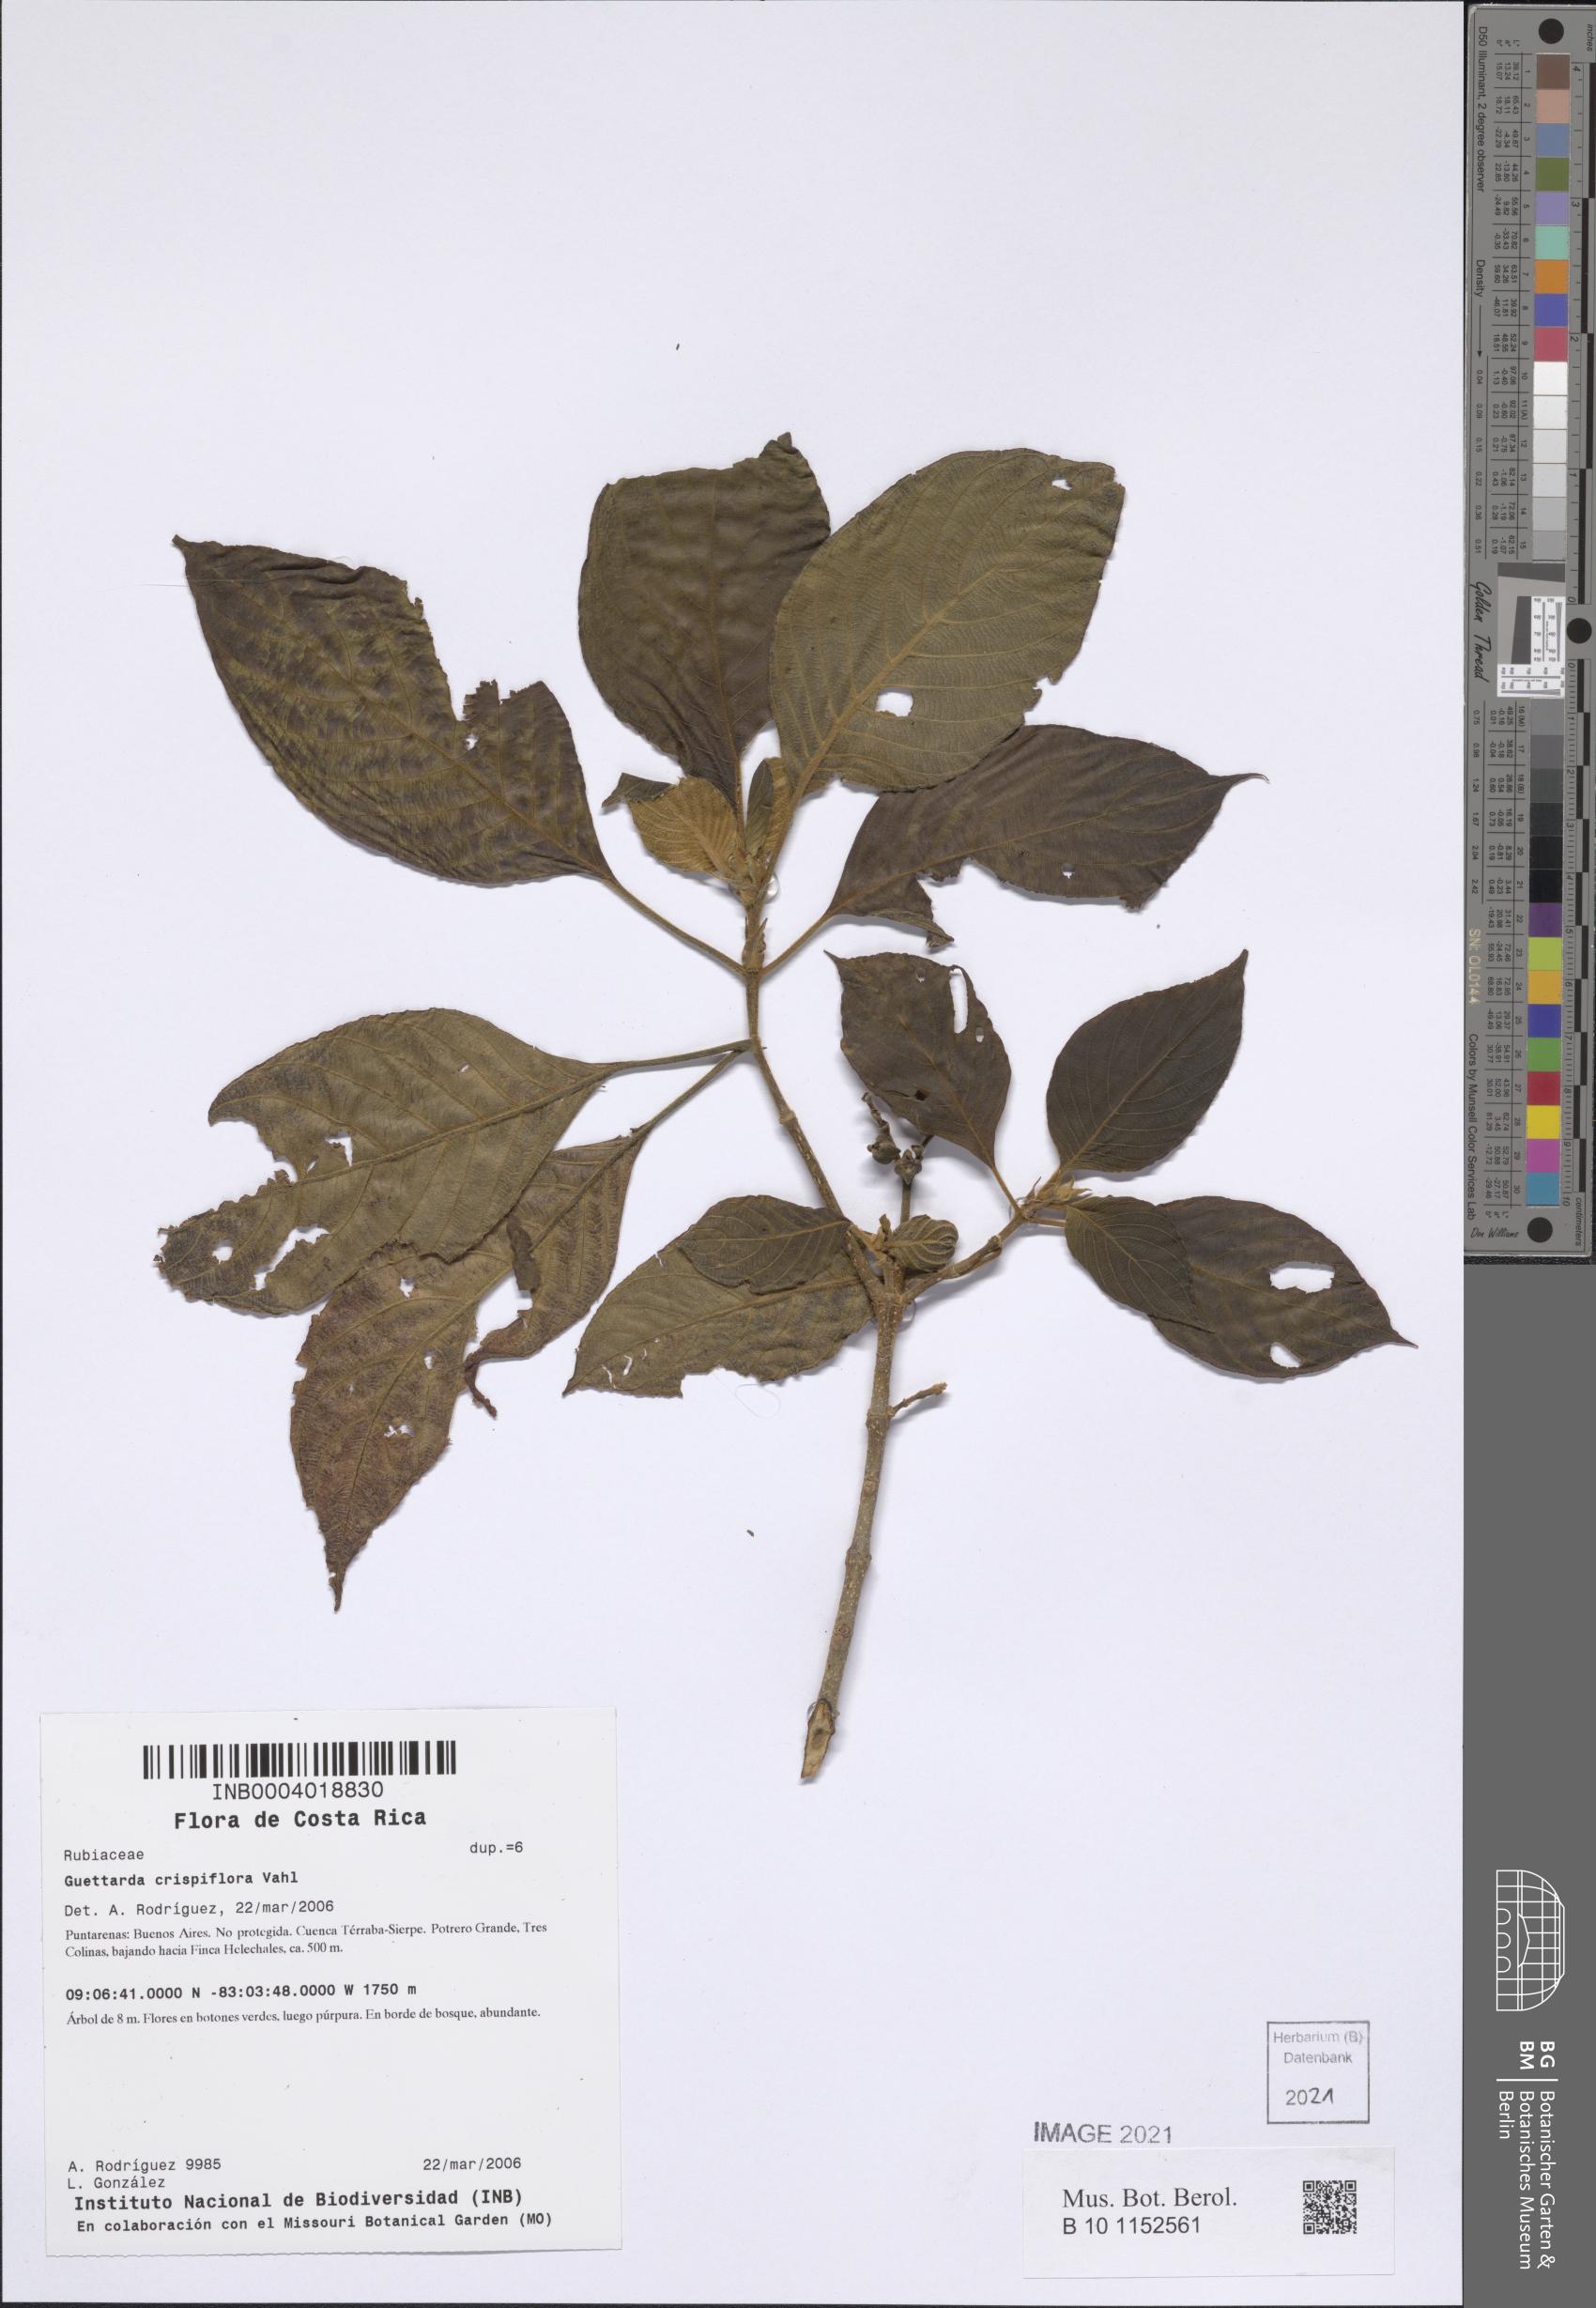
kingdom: Plantae
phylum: Tracheophyta
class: Magnoliopsida
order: Gentianales
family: Rubiaceae
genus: Tournefortiopsis
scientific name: Tournefortiopsis dependens
